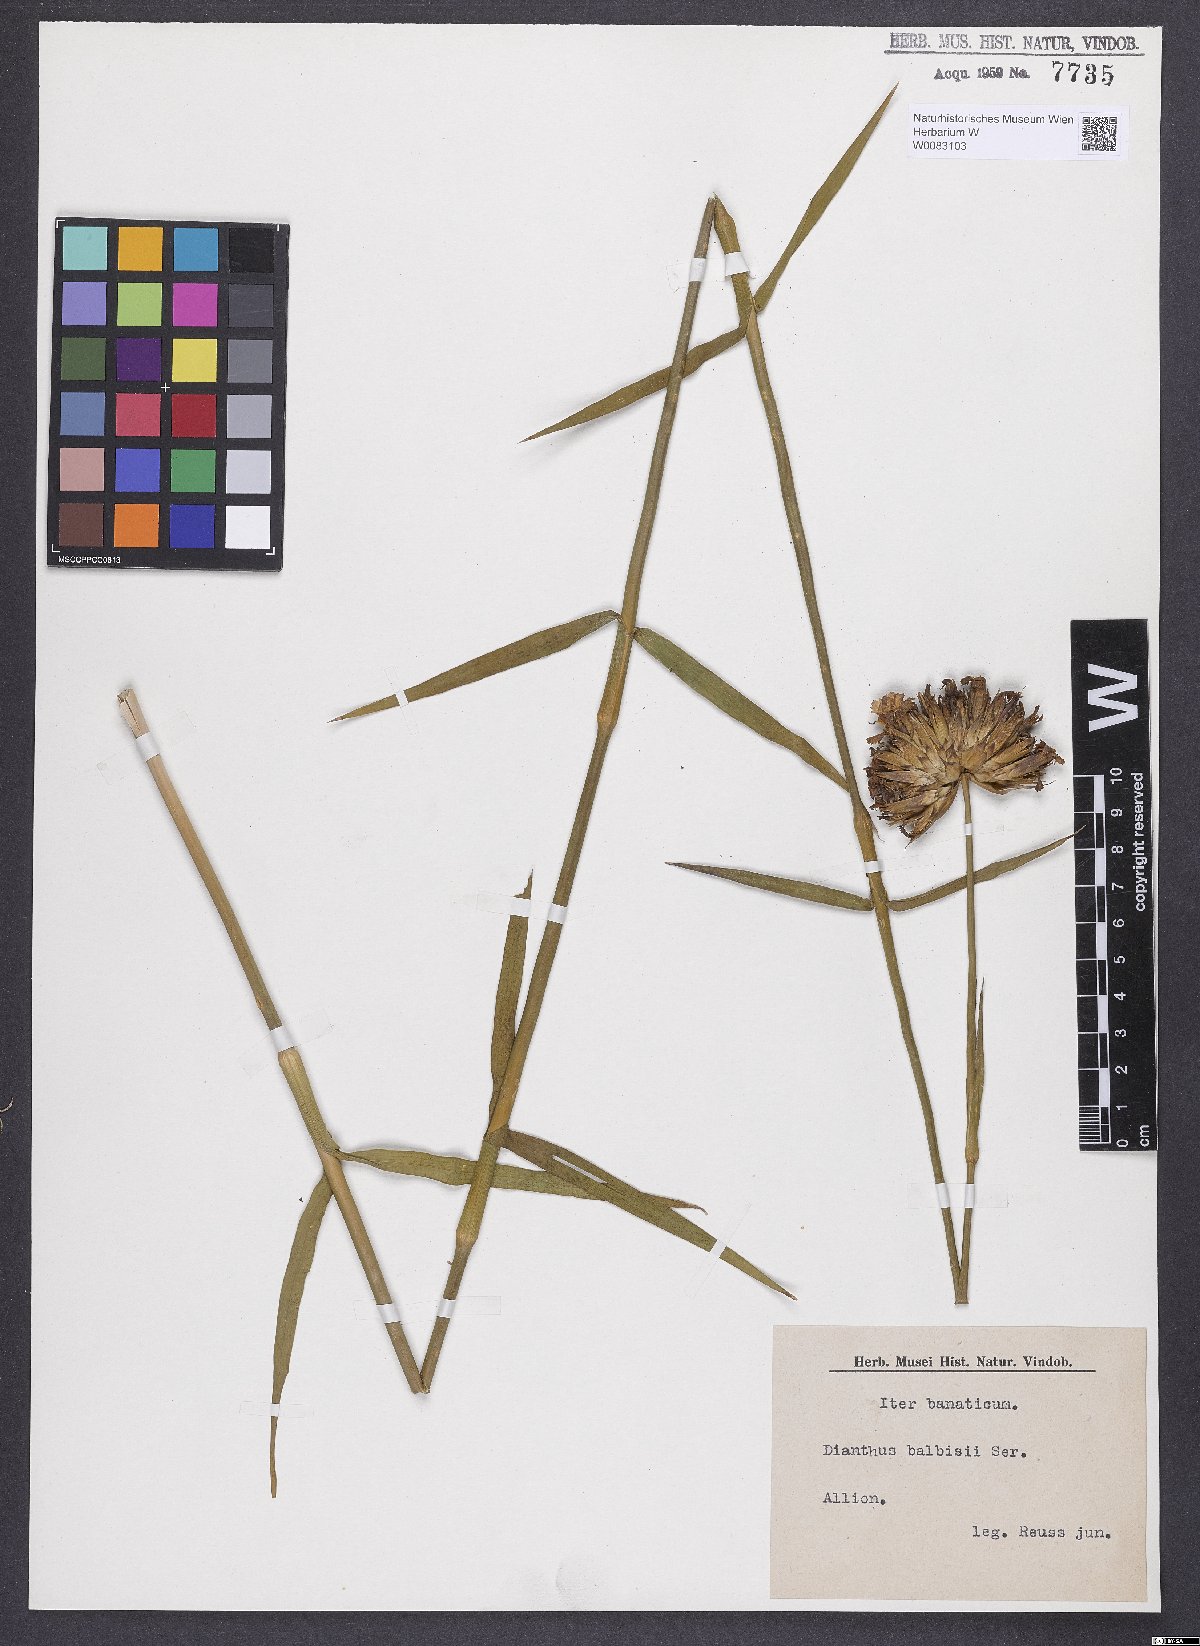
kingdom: Plantae
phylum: Tracheophyta
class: Magnoliopsida
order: Caryophyllales
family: Caryophyllaceae
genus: Dianthus
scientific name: Dianthus crassipes
